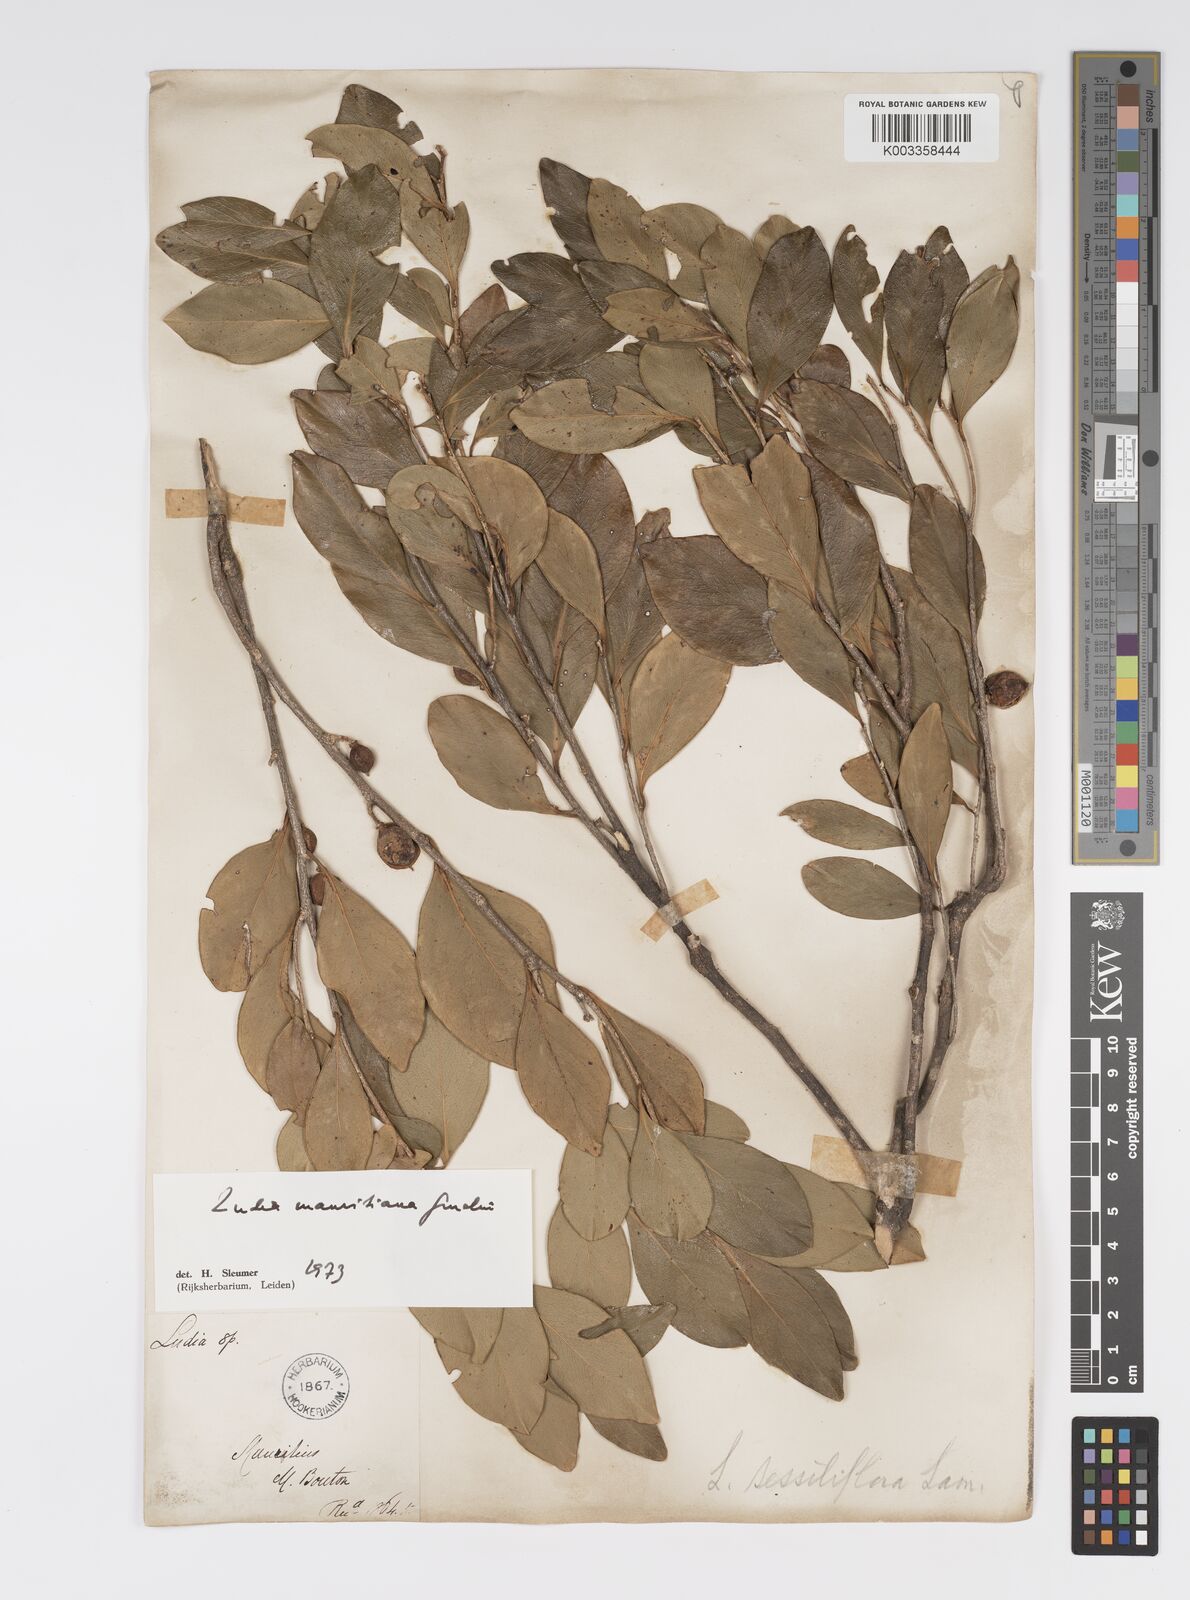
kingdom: Plantae
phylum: Tracheophyta
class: Magnoliopsida
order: Malpighiales
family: Salicaceae
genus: Ludia
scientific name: Ludia mauritiana
